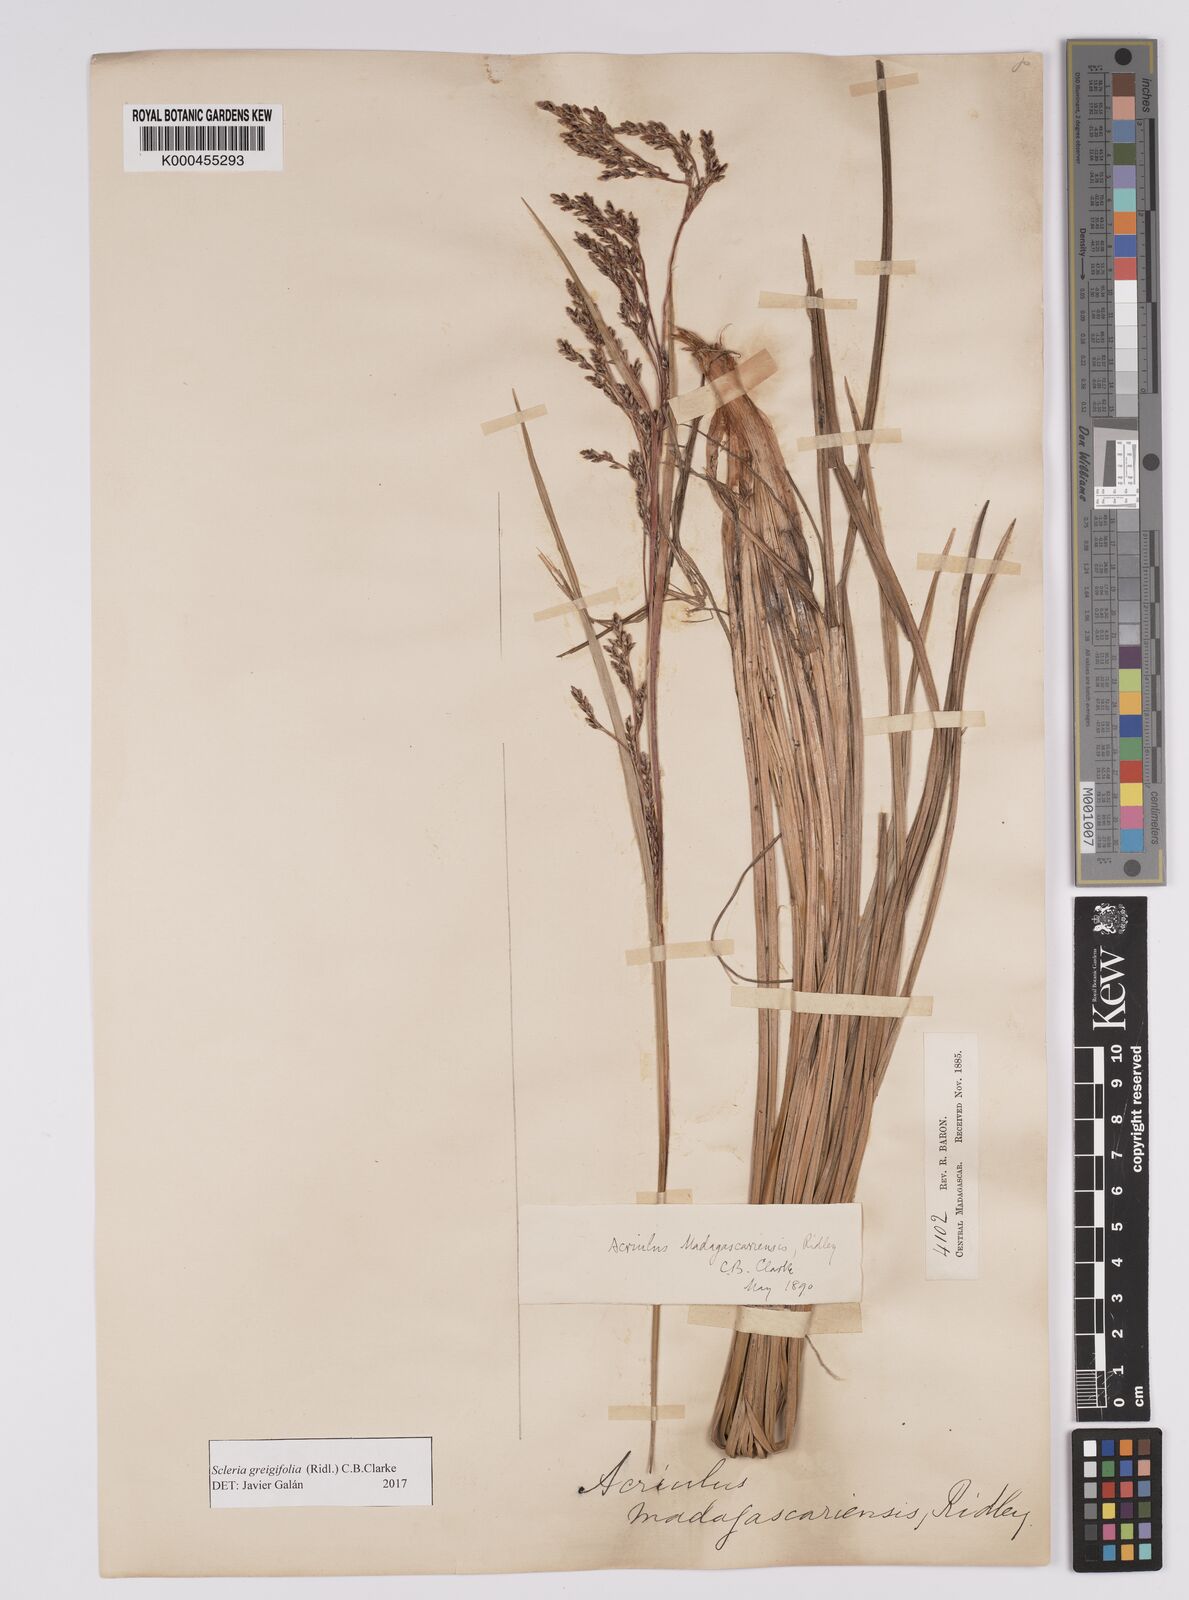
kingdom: Plantae
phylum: Tracheophyta
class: Liliopsida
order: Poales
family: Cyperaceae
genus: Scleria
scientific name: Scleria greigiifolia
